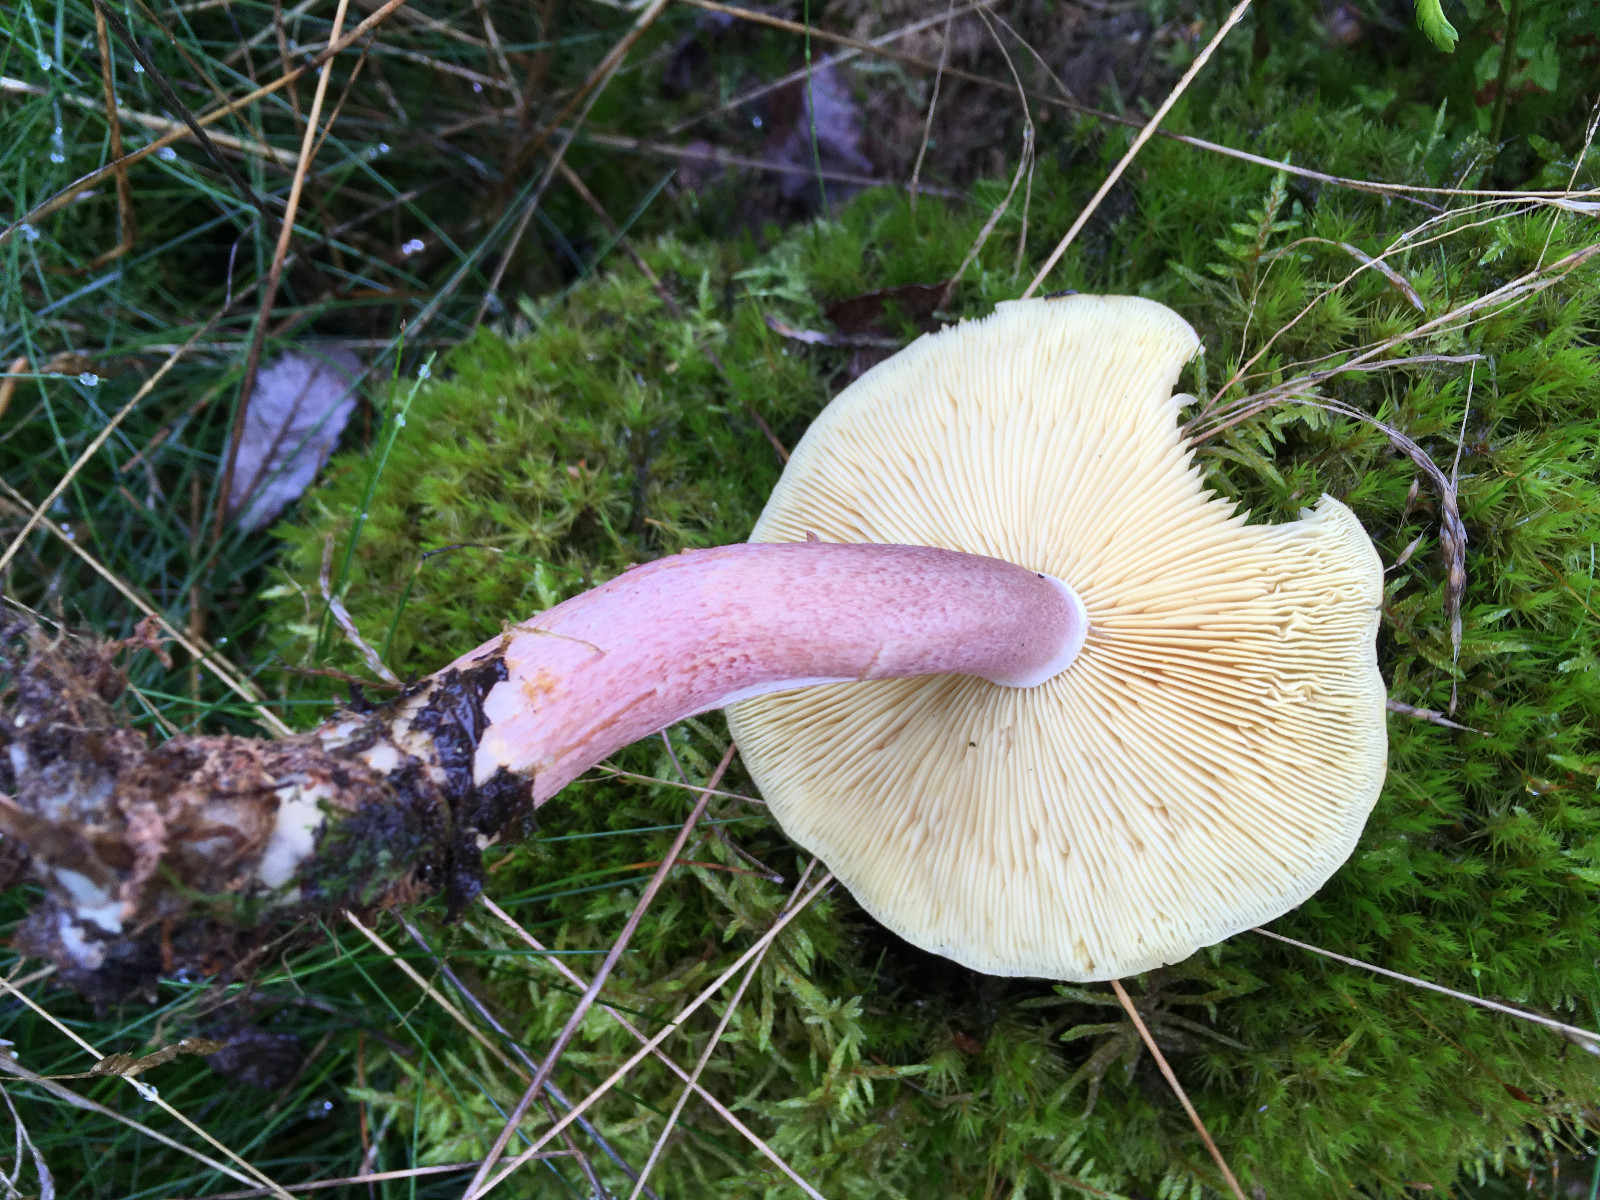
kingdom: Fungi
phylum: Basidiomycota
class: Agaricomycetes
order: Agaricales
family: Tricholomataceae
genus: Tricholomopsis
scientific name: Tricholomopsis rutilans
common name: purpur-væbnerhat
